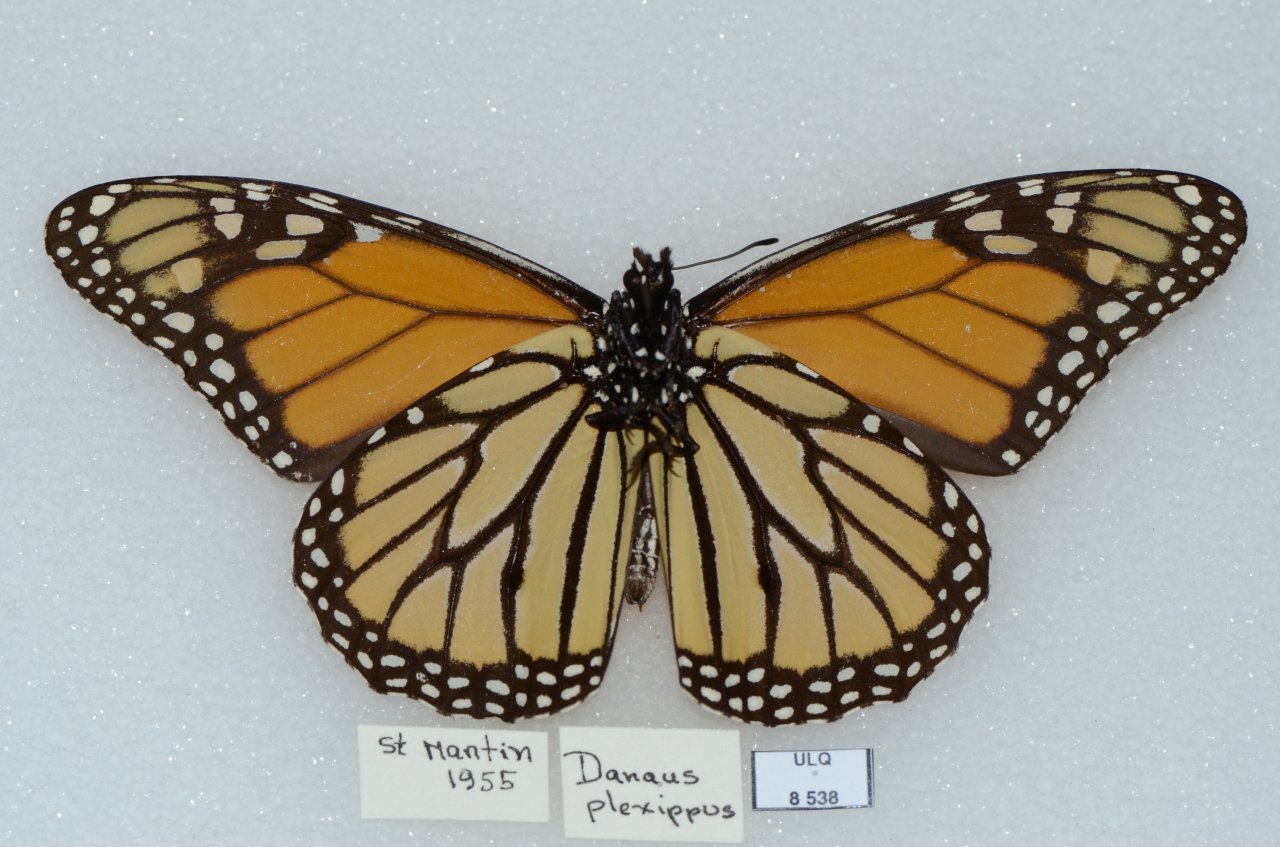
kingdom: Animalia
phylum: Arthropoda
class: Insecta
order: Lepidoptera
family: Nymphalidae
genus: Danaus
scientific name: Danaus plexippus
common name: Monarch
